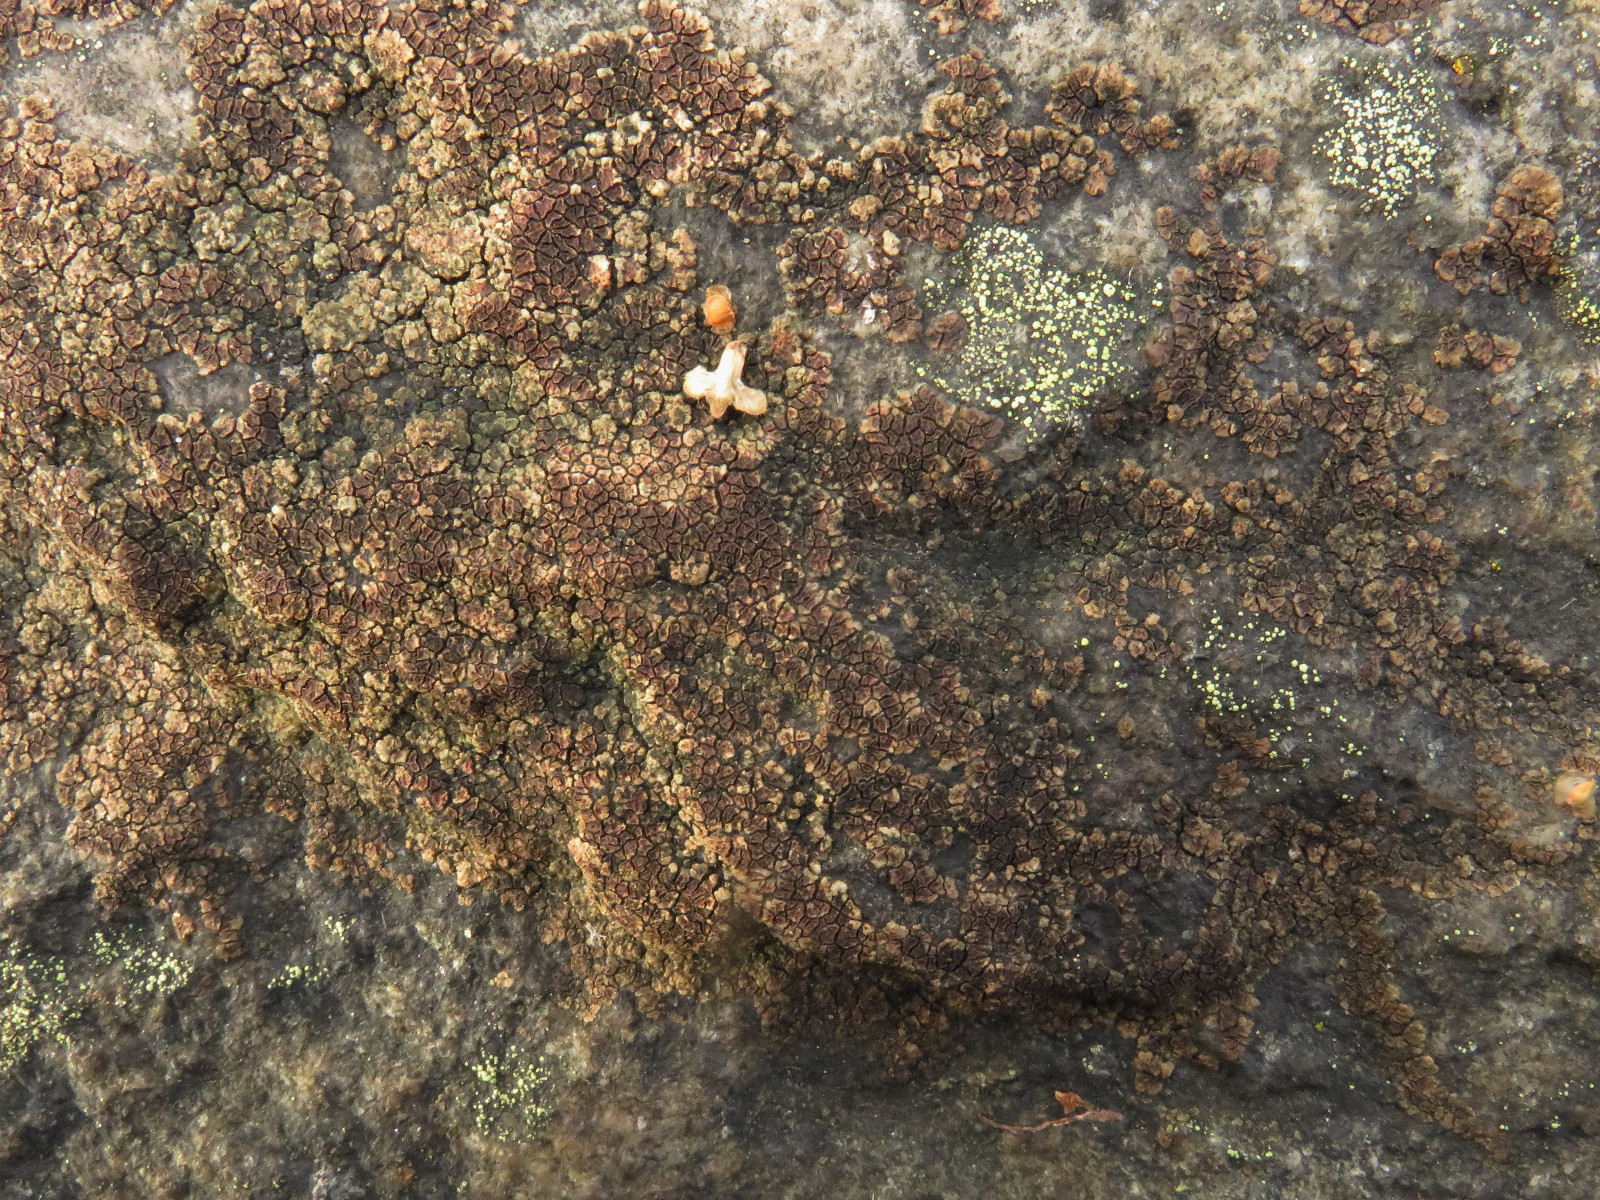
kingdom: Fungi
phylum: Ascomycota
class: Lecanoromycetes
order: Acarosporales
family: Acarosporaceae
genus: Acarospora
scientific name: Acarospora fuscata
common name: brun småsporelav
